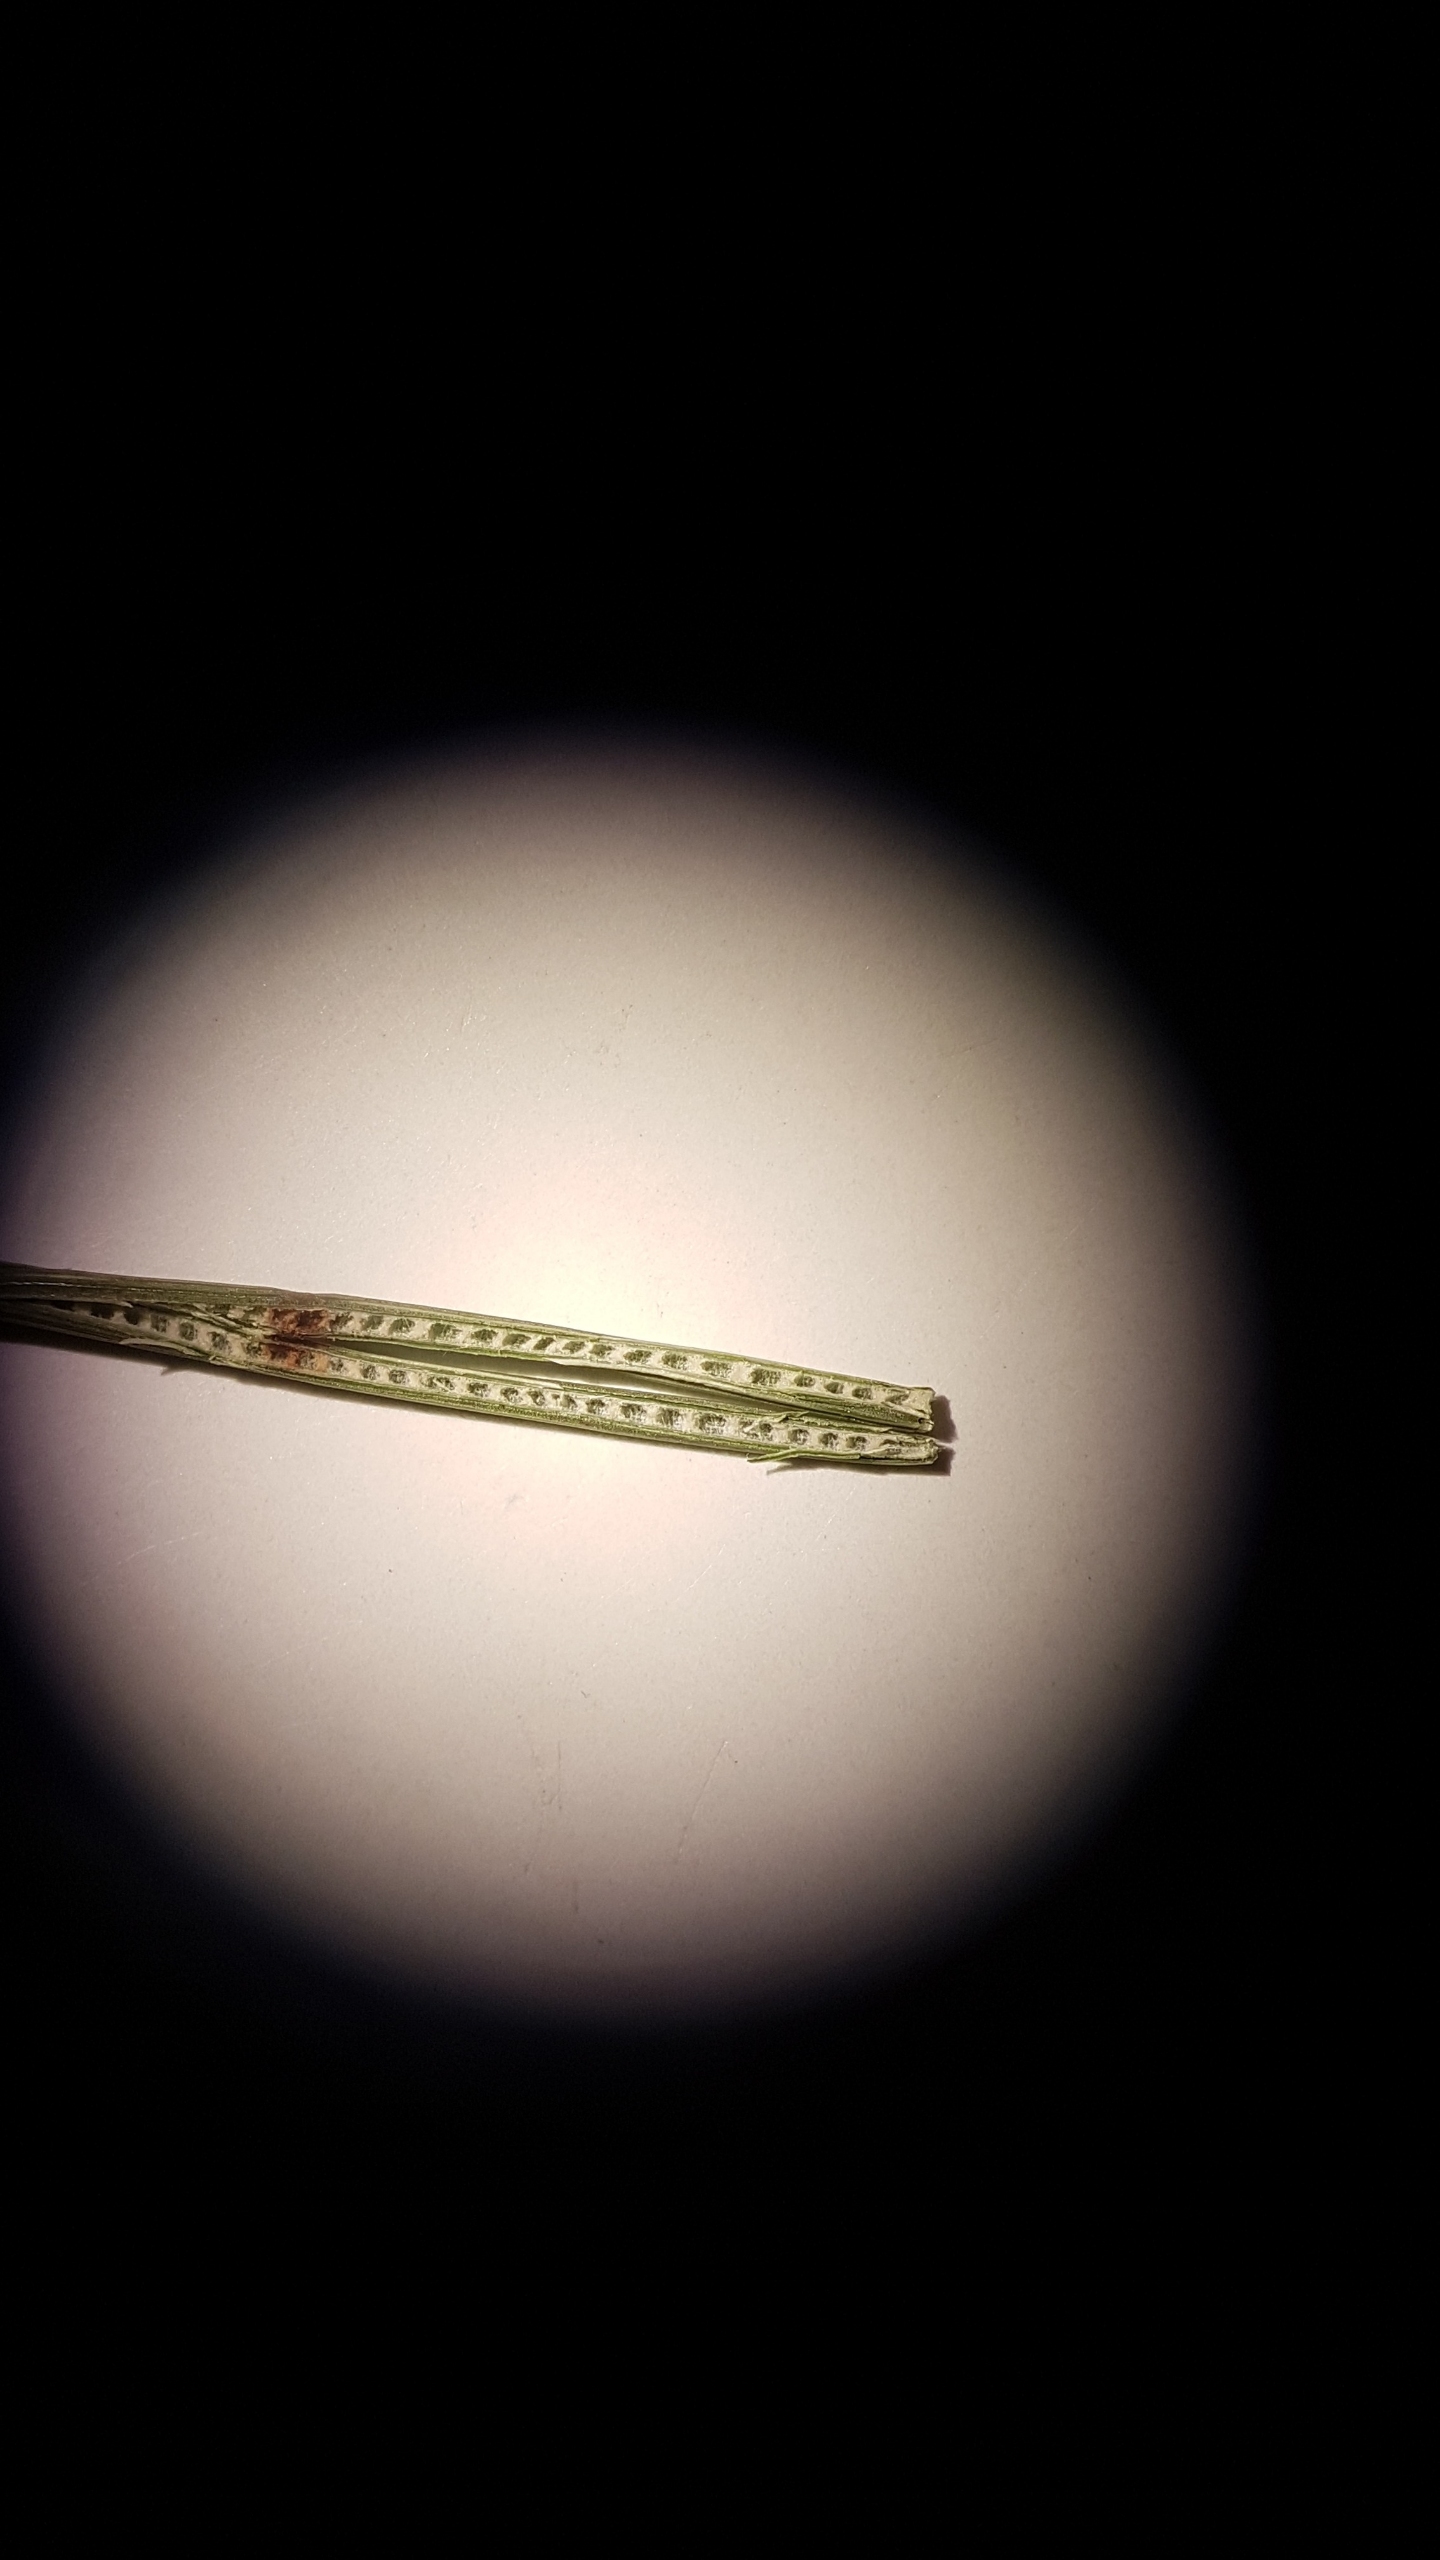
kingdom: Plantae
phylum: Tracheophyta
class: Liliopsida
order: Poales
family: Juncaceae
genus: Juncus
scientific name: Juncus inflexus
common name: Blågrå siv
